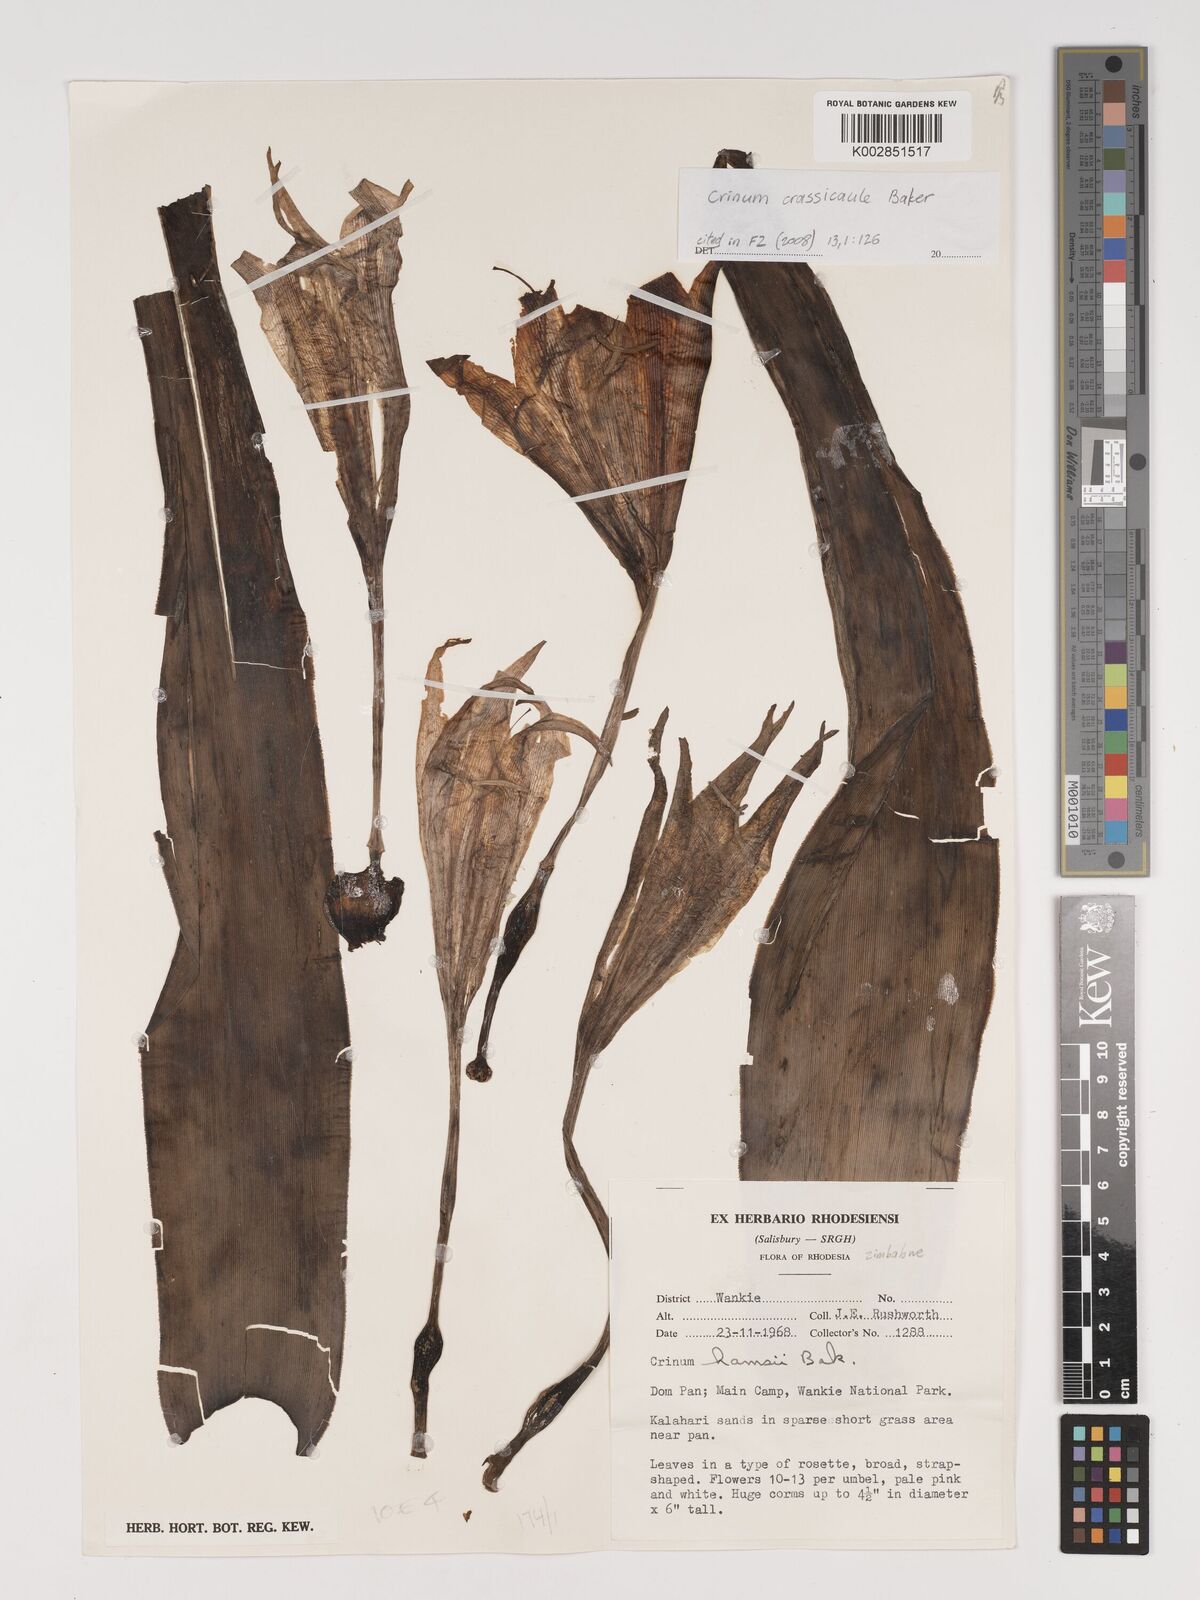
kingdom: Plantae
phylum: Tracheophyta
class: Liliopsida
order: Asparagales
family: Amaryllidaceae
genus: Crinum
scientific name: Crinum crassicaule
